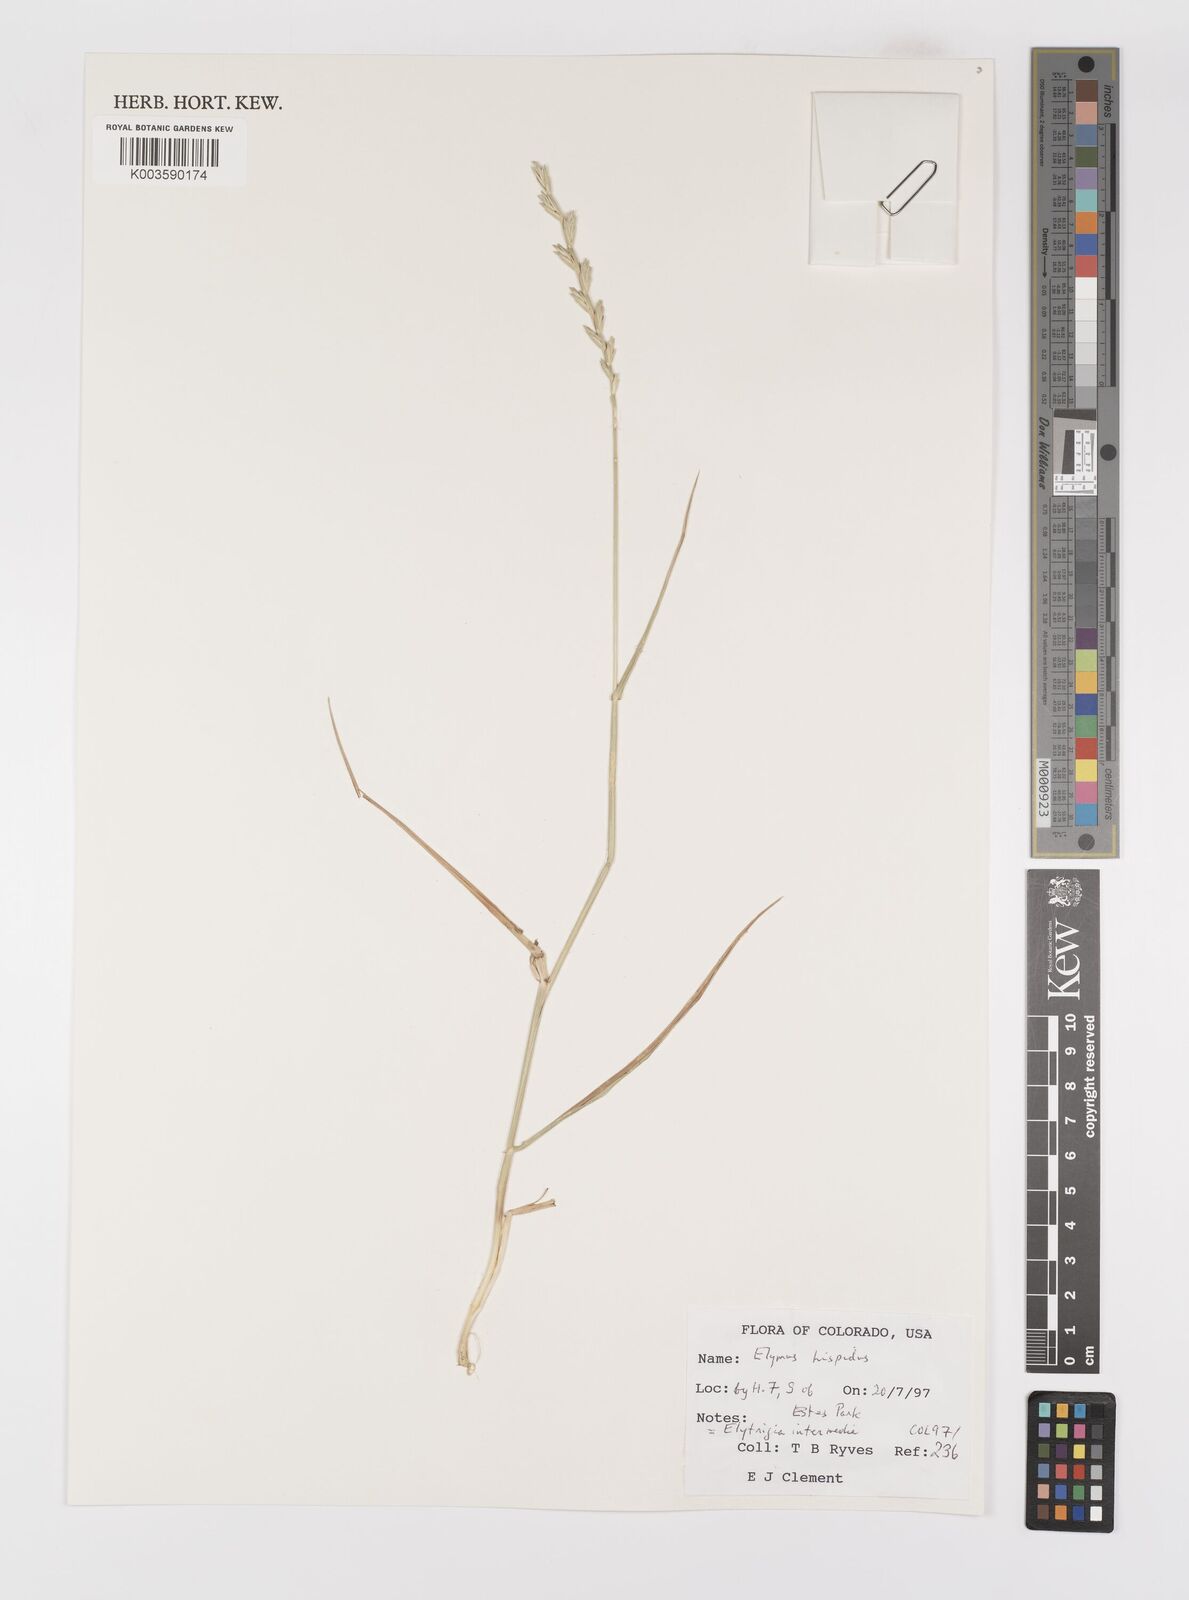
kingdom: Plantae
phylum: Tracheophyta
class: Liliopsida
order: Poales
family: Poaceae
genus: Thinopyrum
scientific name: Thinopyrum intermedium
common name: Intermediate wheatgrass
